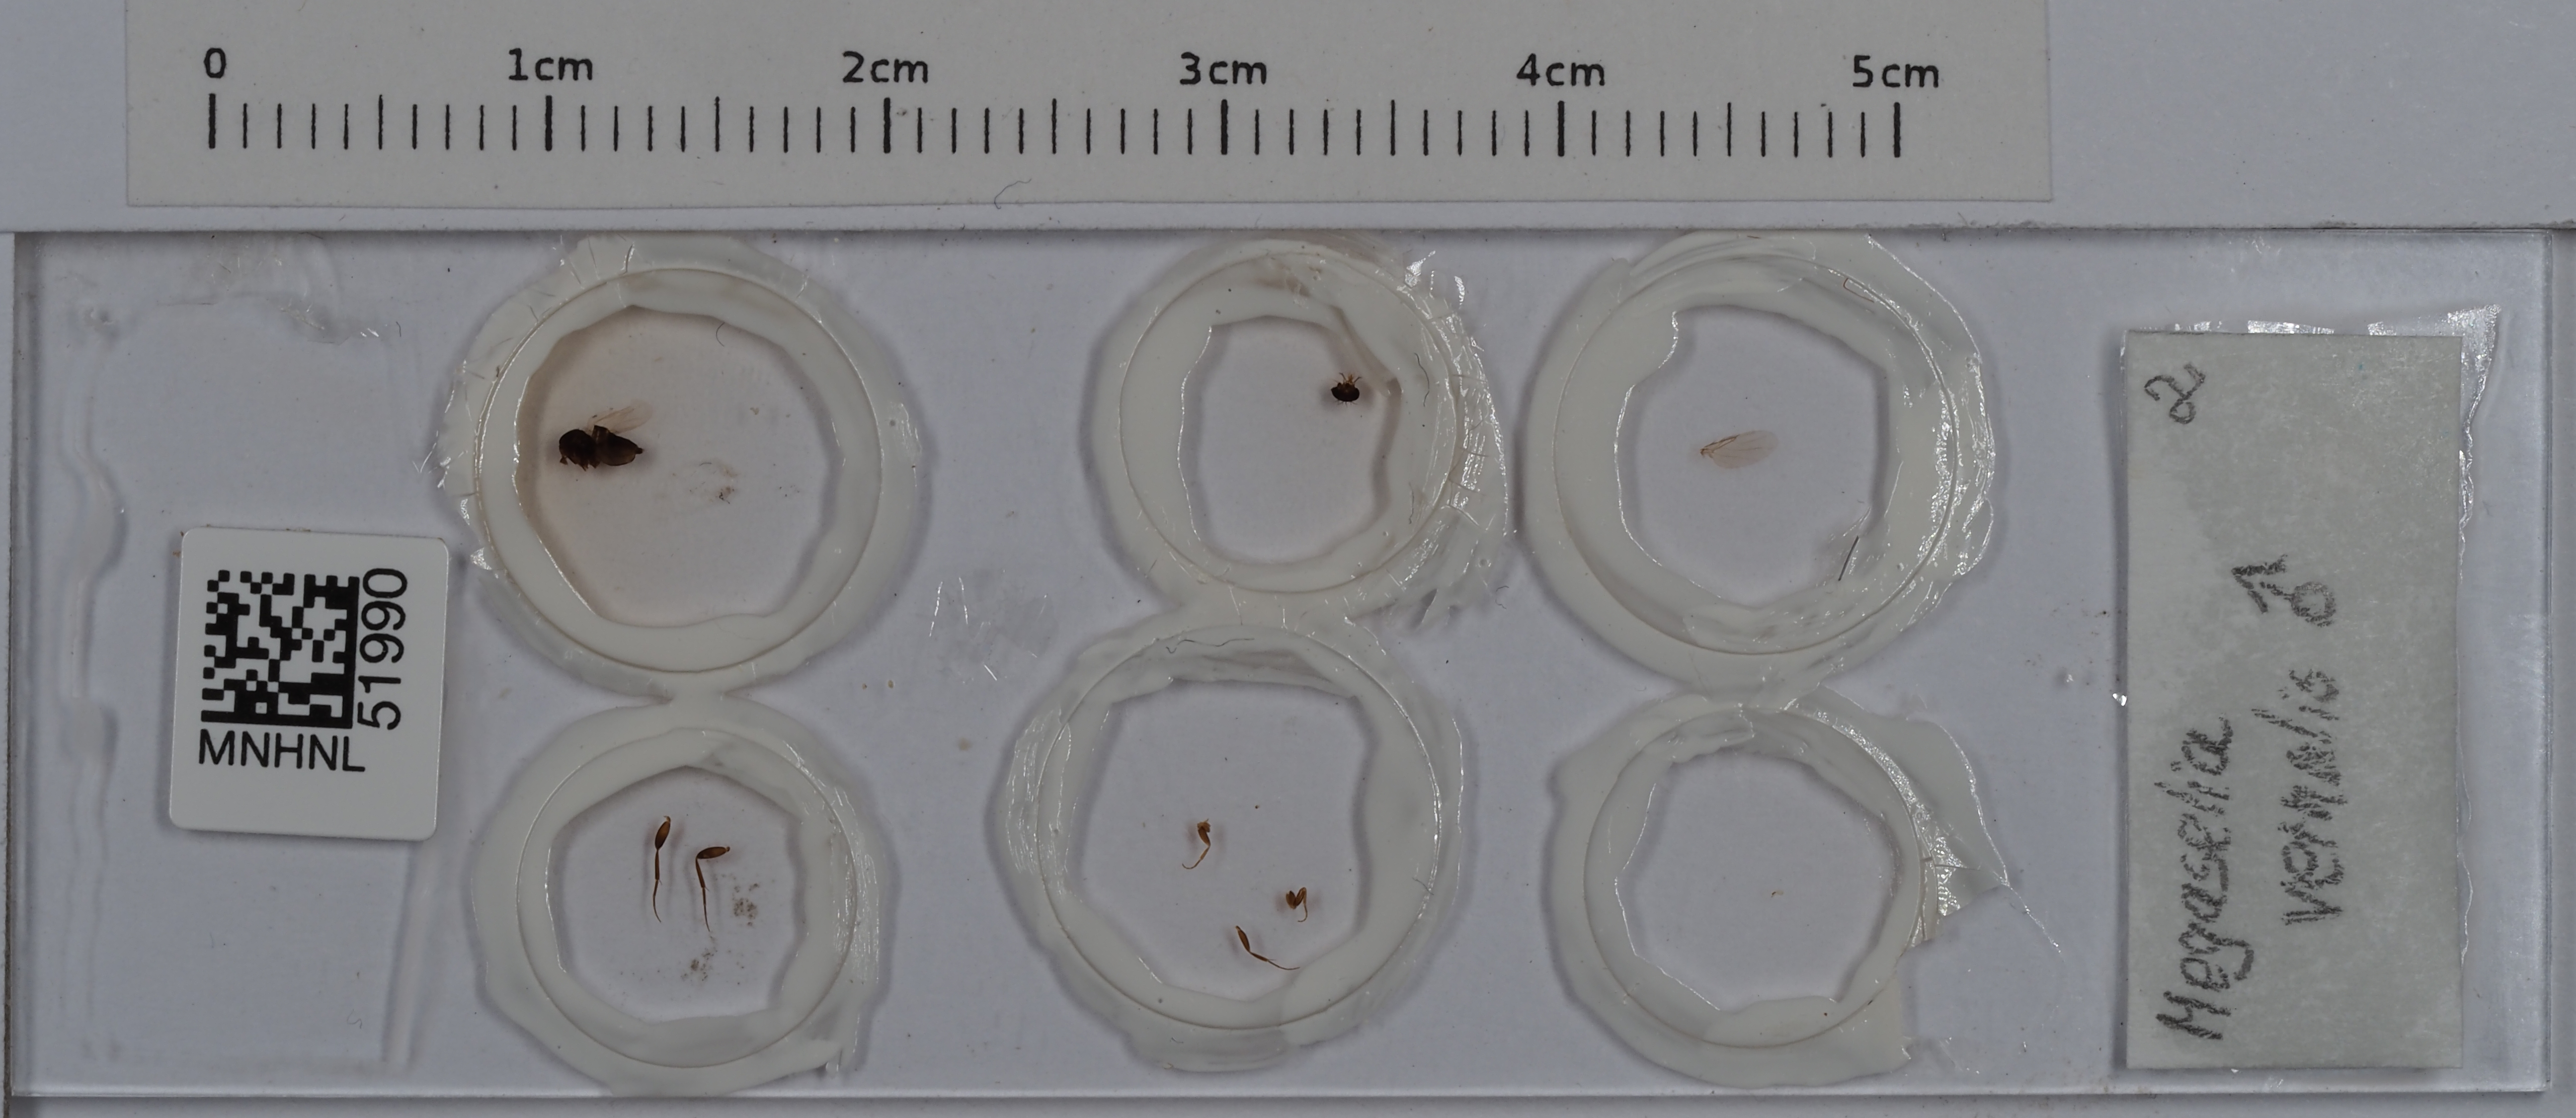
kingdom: Animalia
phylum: Arthropoda
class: Insecta
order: Diptera
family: Phoridae
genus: Megaselia
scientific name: Megaselia vernalis
